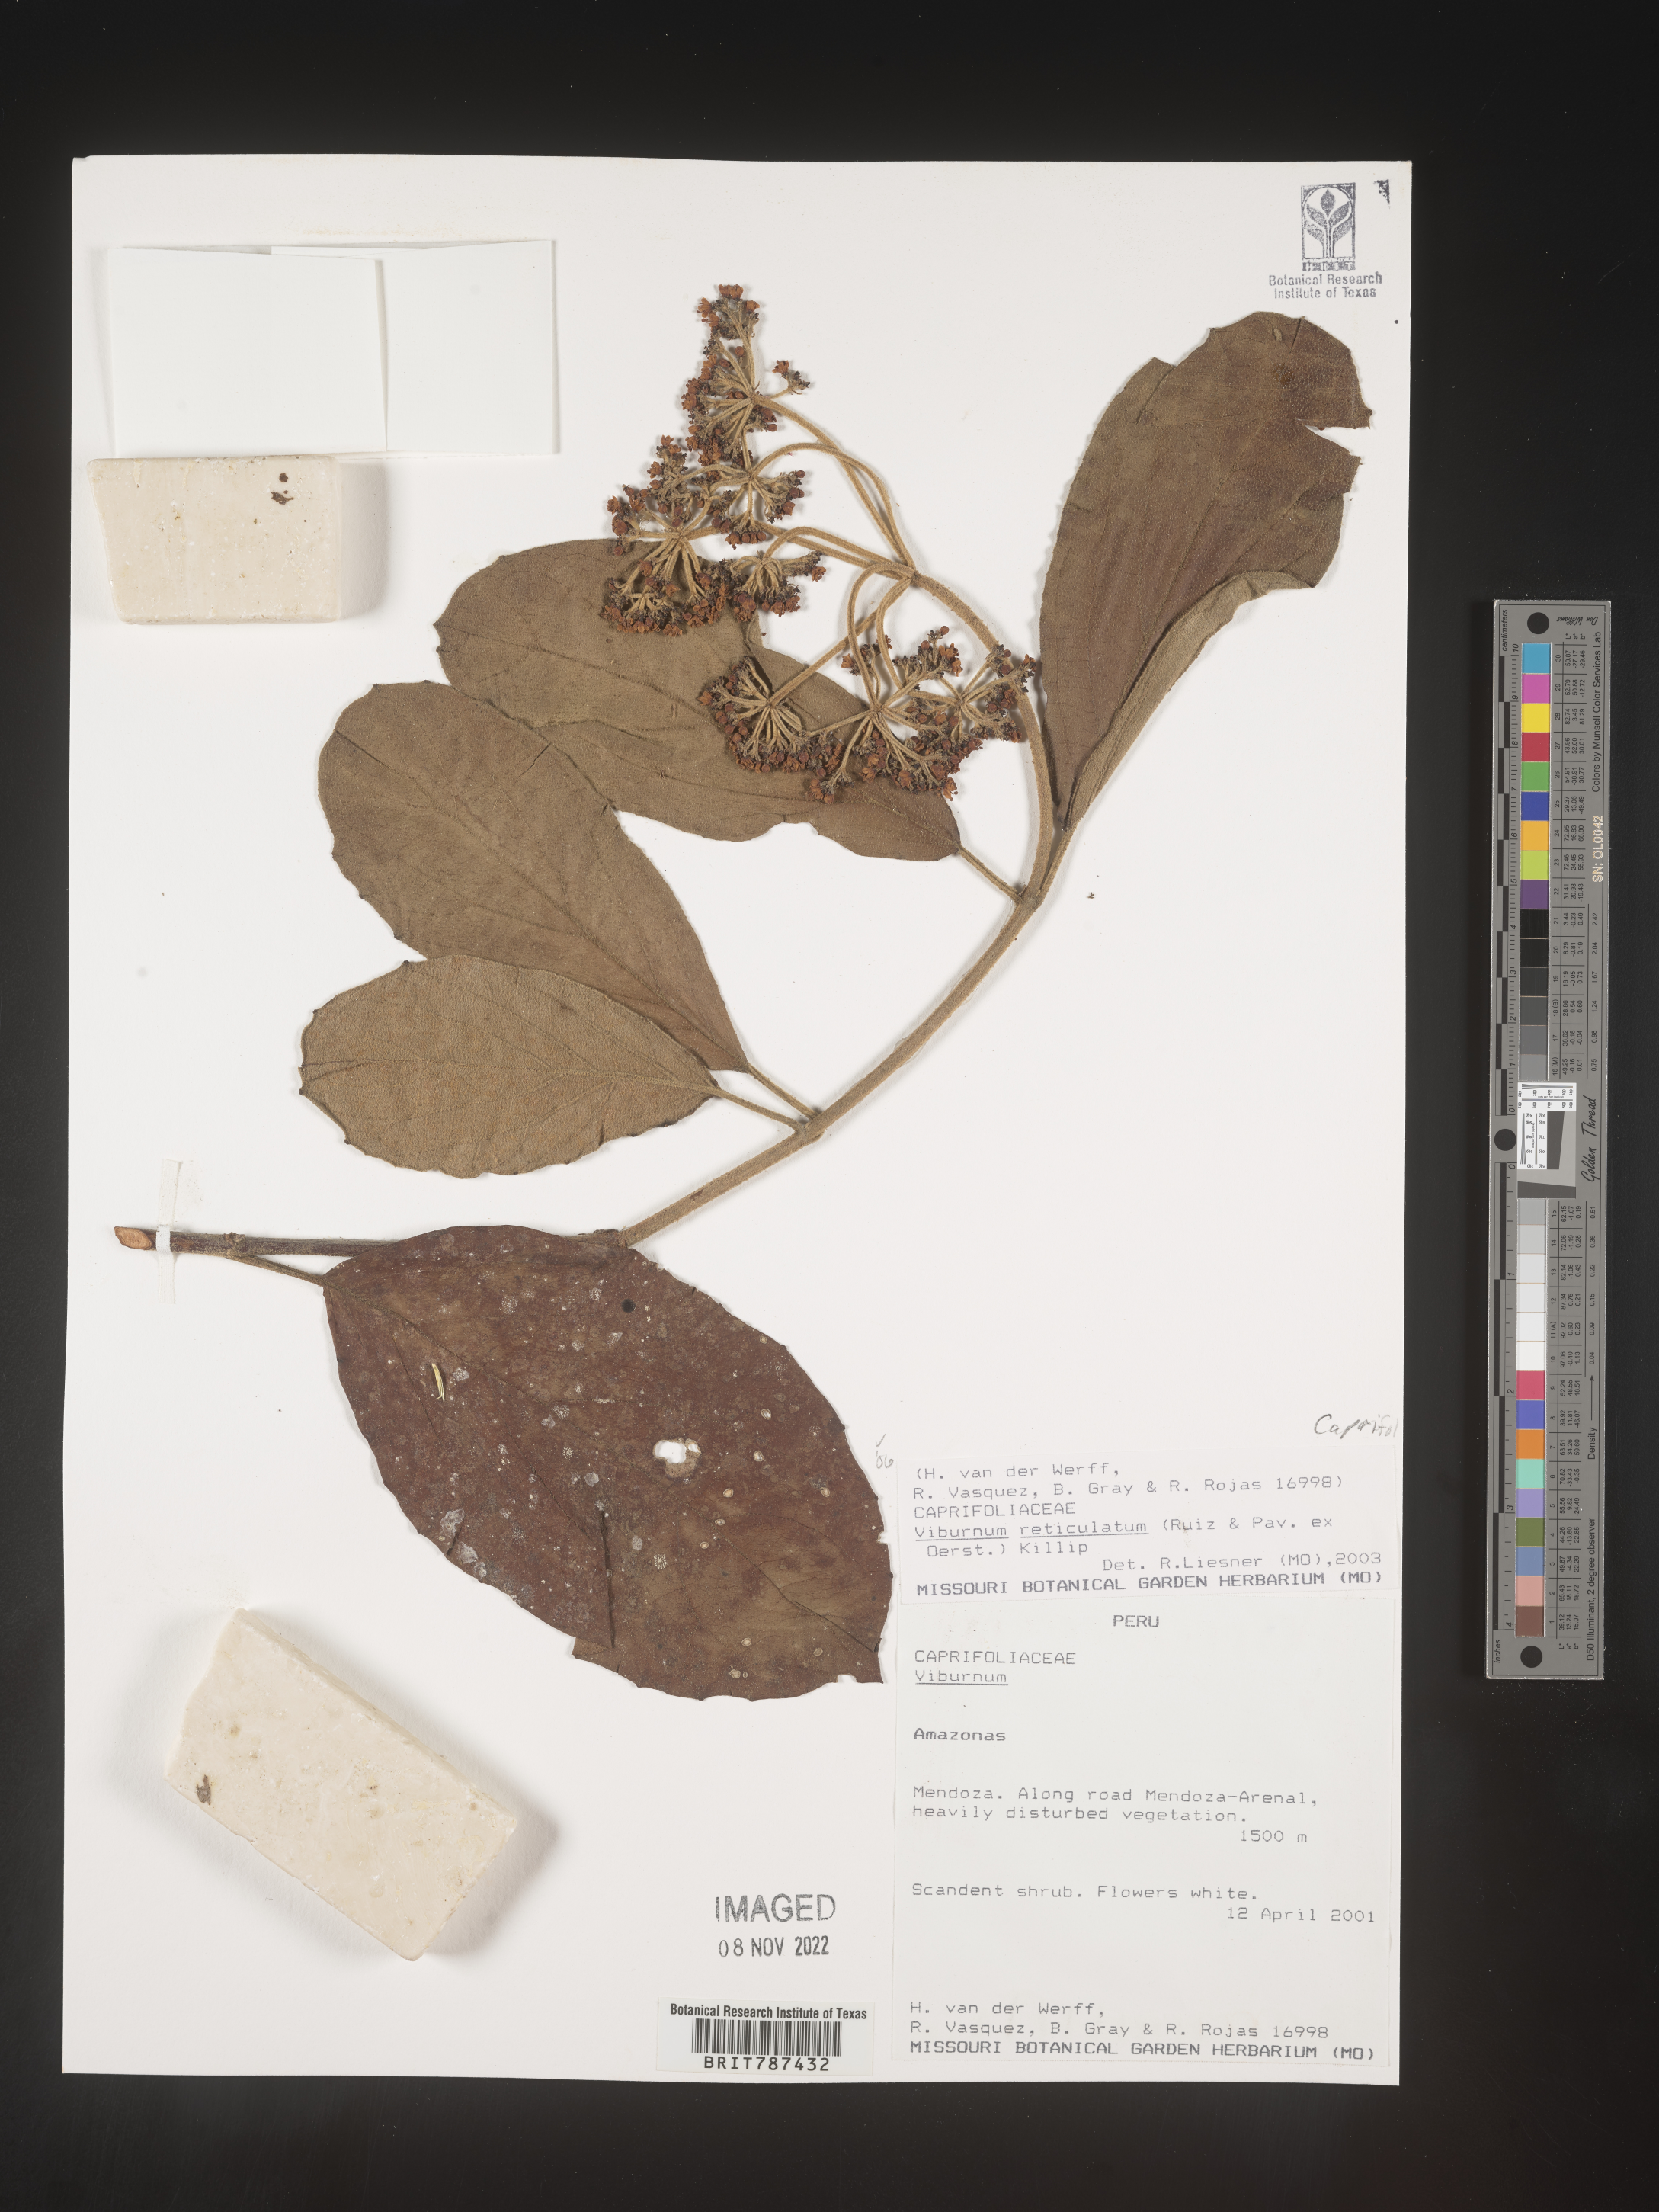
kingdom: Plantae
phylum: Tracheophyta
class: Magnoliopsida
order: Dipsacales
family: Viburnaceae
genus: Viburnum
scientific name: Viburnum
